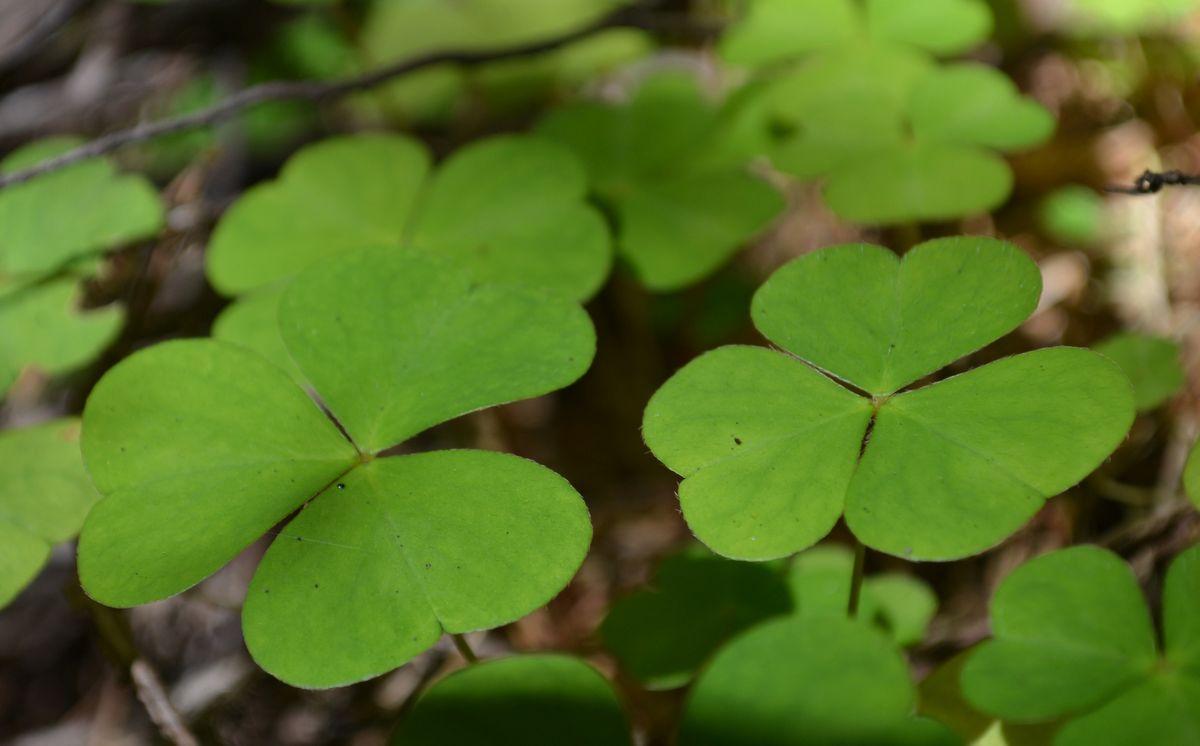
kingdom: Plantae
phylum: Tracheophyta
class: Magnoliopsida
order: Oxalidales
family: Oxalidaceae
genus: Oxalis
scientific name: Oxalis acetosella
